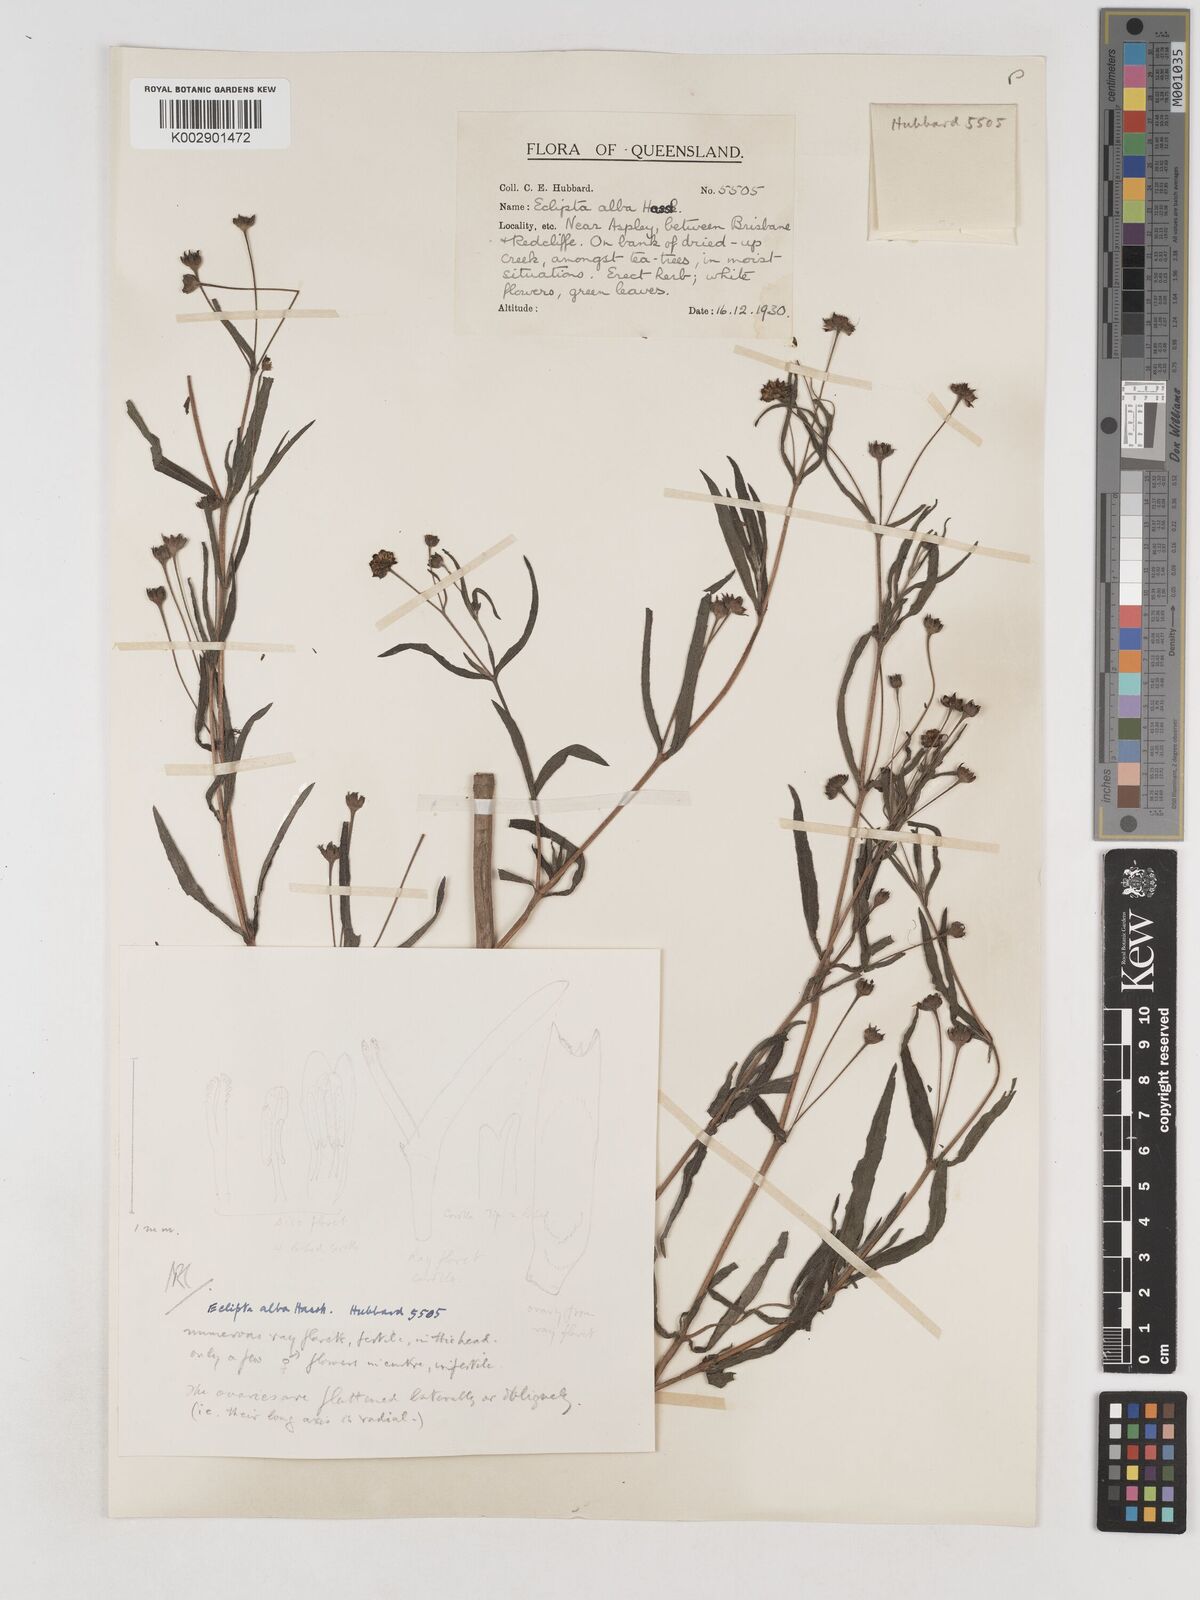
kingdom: Plantae
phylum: Tracheophyta
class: Magnoliopsida
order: Asterales
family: Asteraceae
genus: Eclipta
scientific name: Eclipta alba
